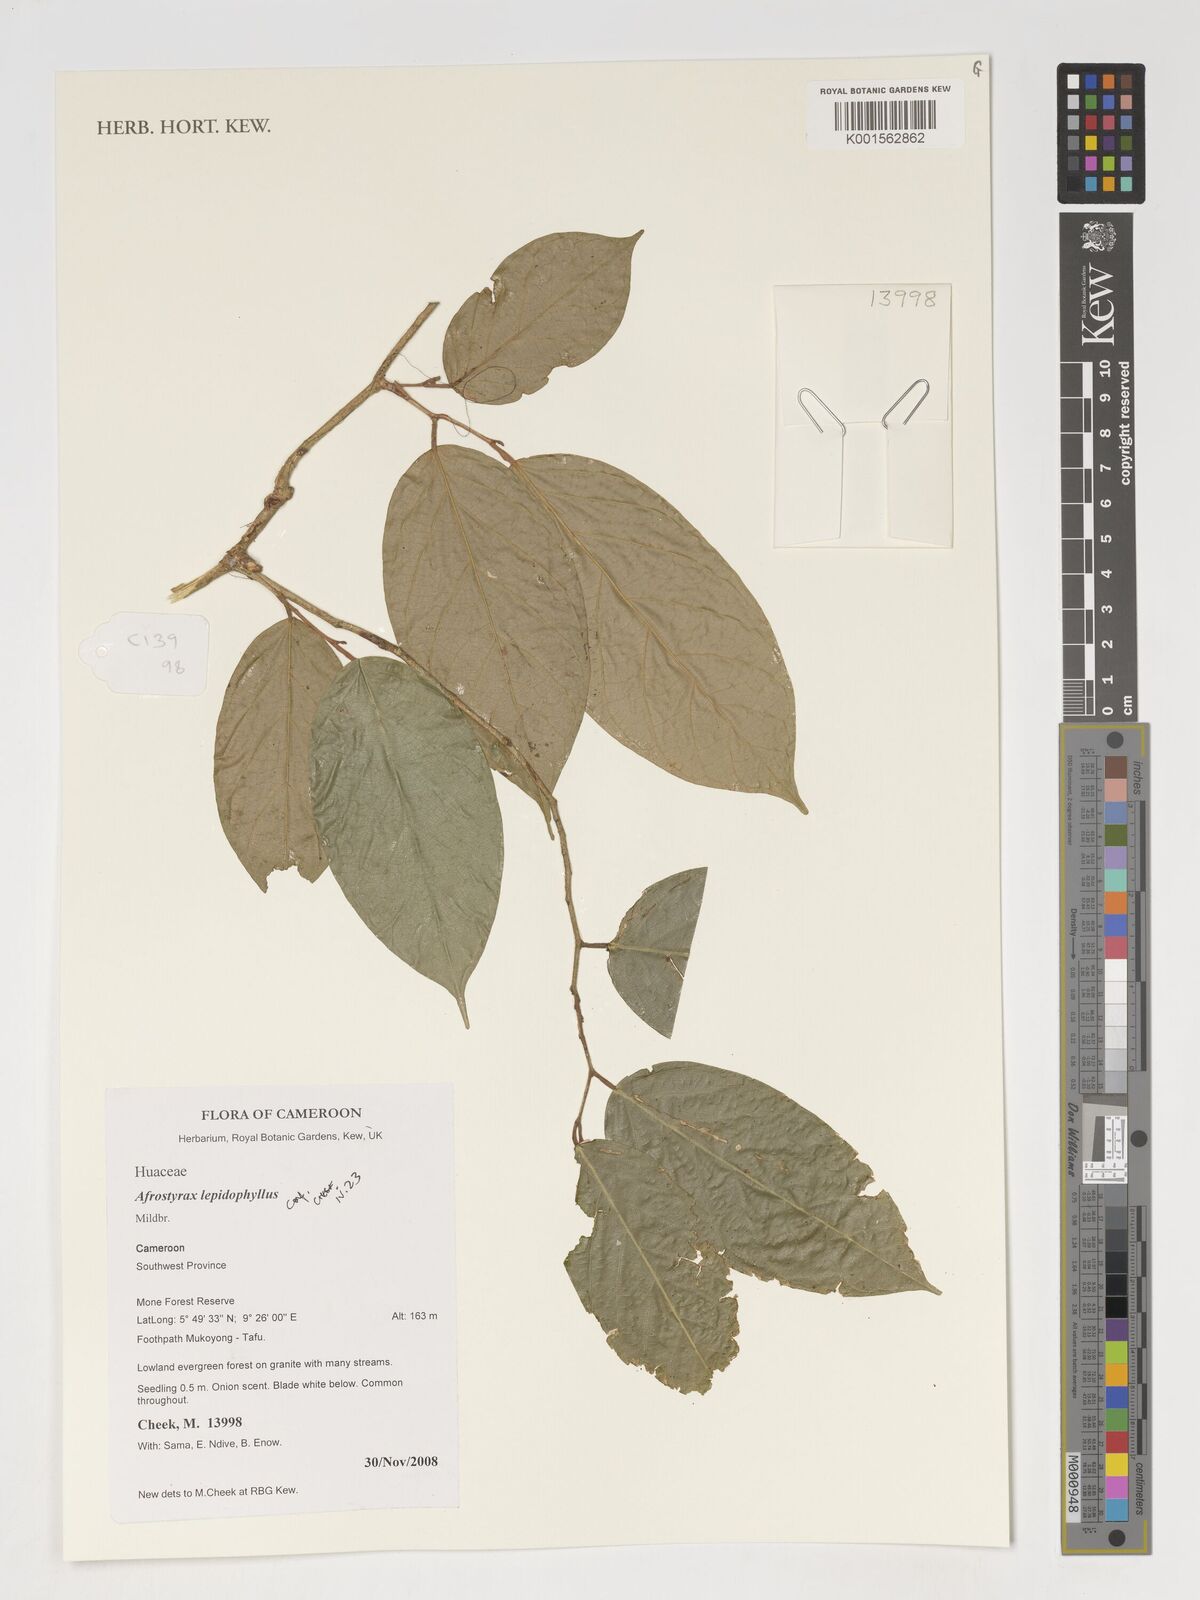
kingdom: Plantae
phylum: Tracheophyta
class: Magnoliopsida
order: Oxalidales
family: Huaceae
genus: Afrostyrax
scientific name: Afrostyrax lepidophyllus
